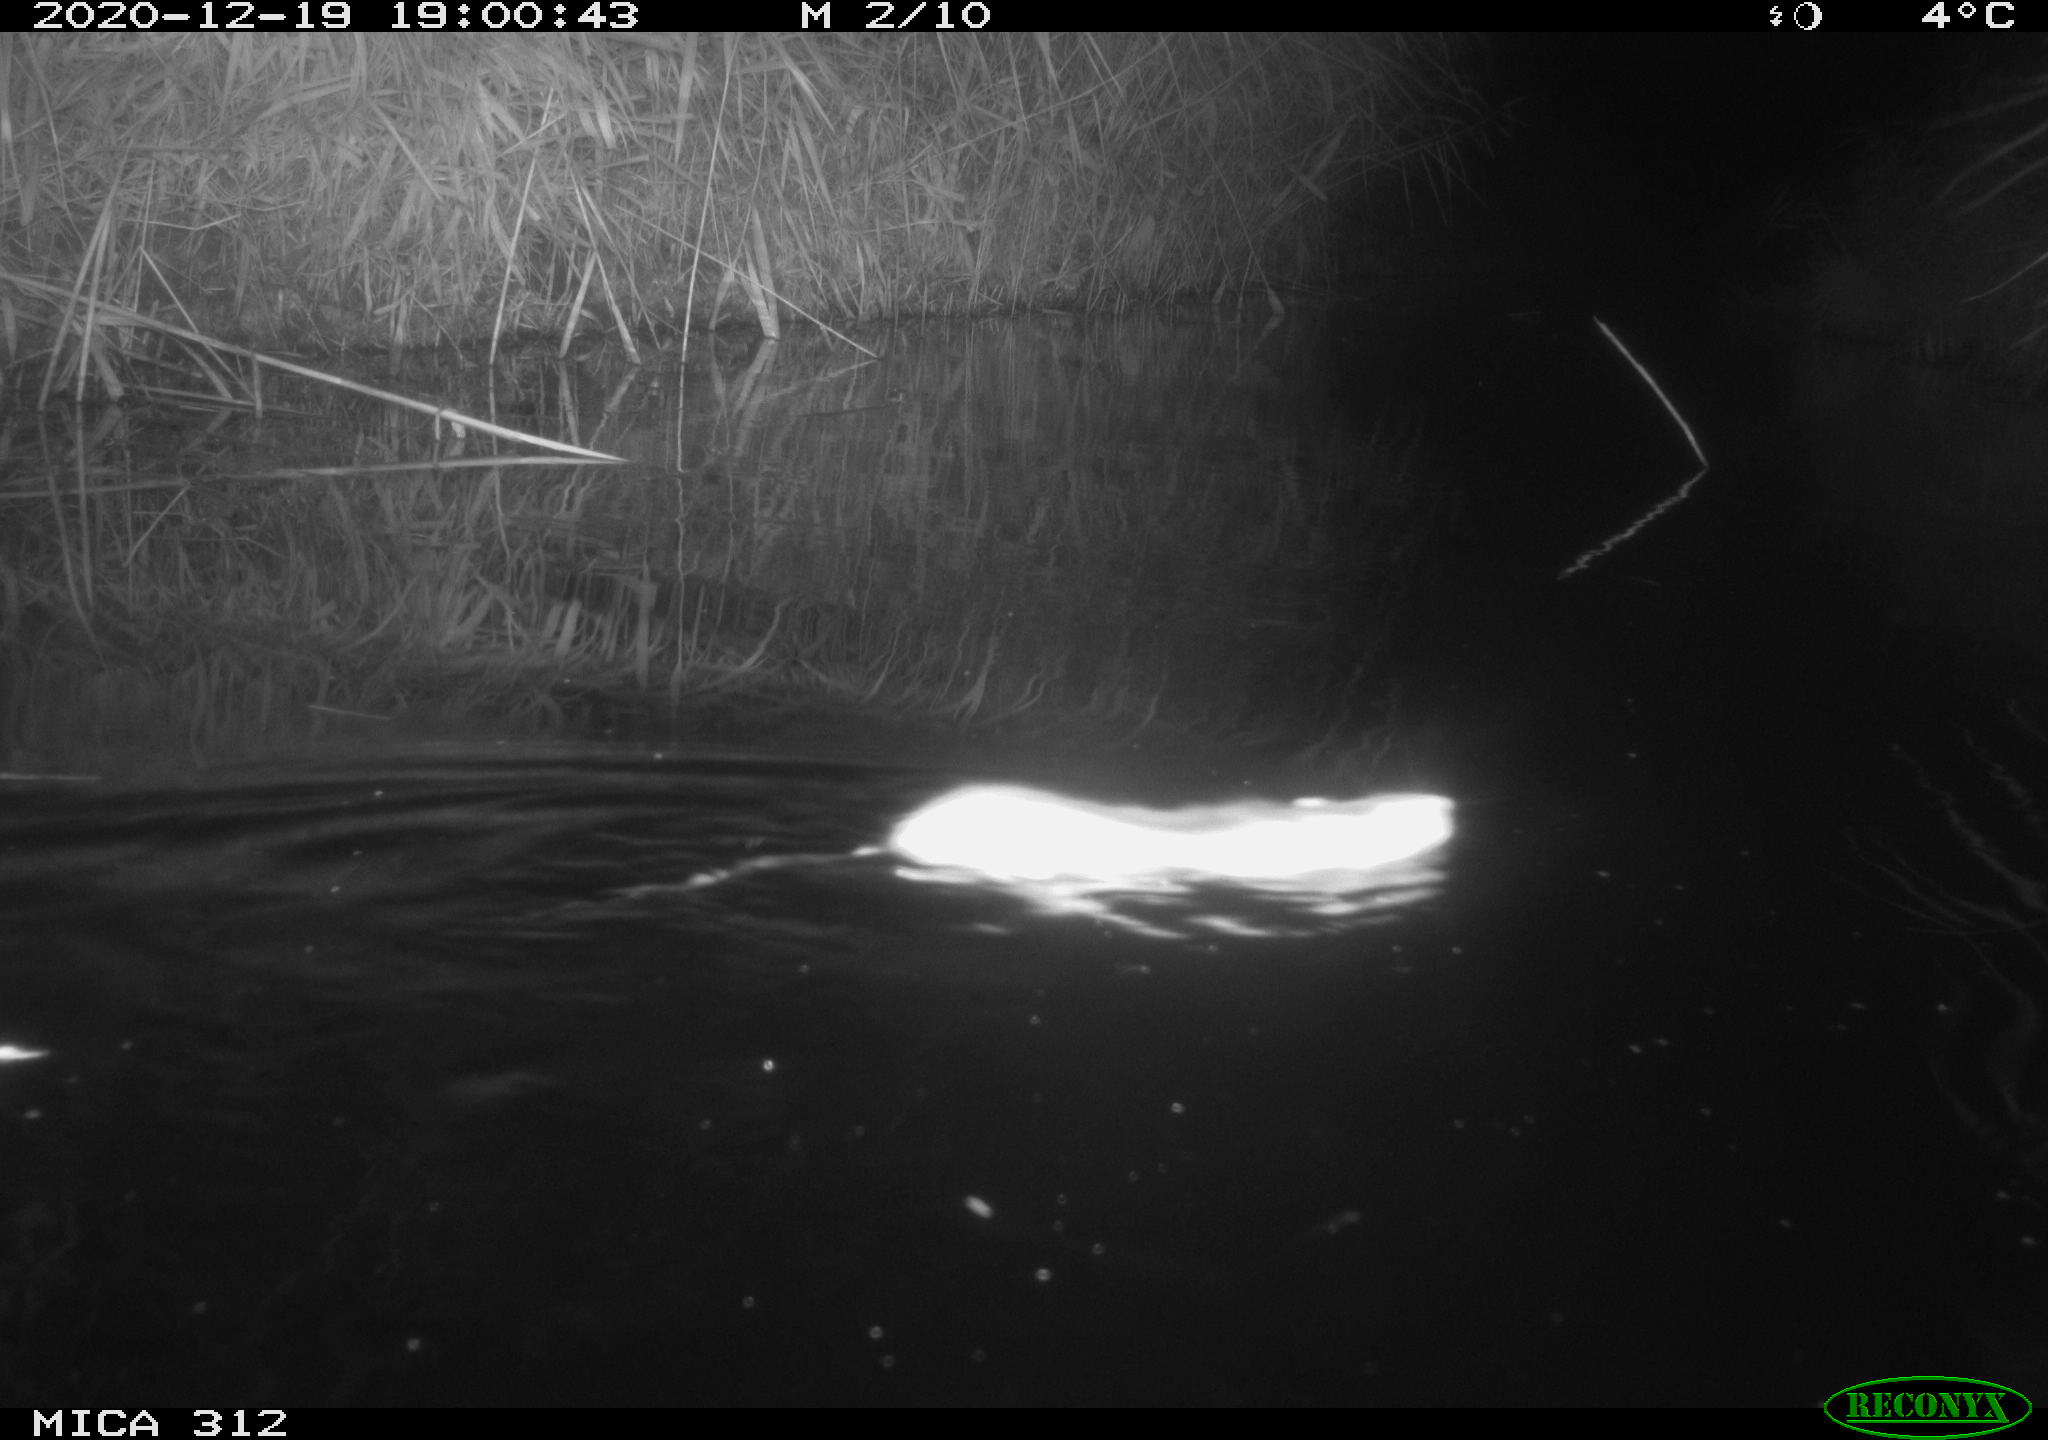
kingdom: Animalia
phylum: Chordata
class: Mammalia
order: Rodentia
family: Muridae
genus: Rattus
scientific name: Rattus norvegicus
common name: Brown rat
